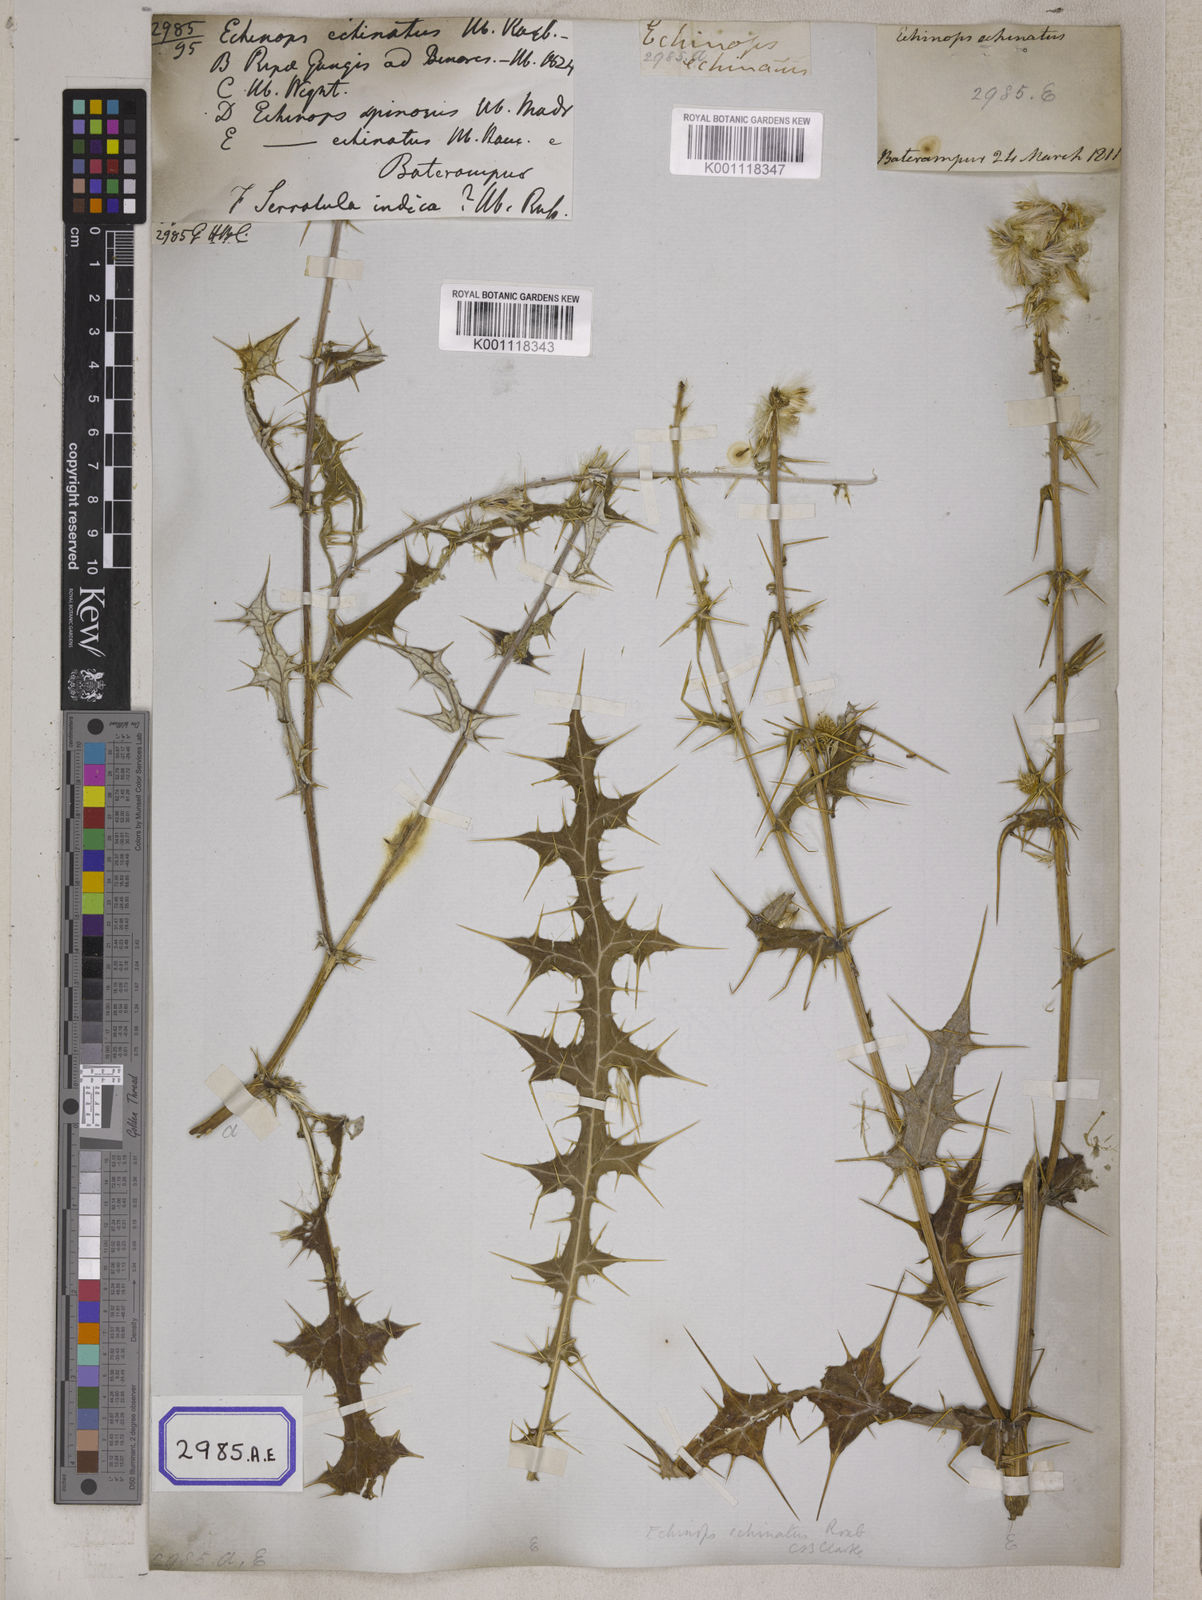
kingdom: Plantae
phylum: Tracheophyta
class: Magnoliopsida
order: Asterales
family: Asteraceae
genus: Echinops
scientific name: Echinops echinatus
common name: Indian globe thistle
